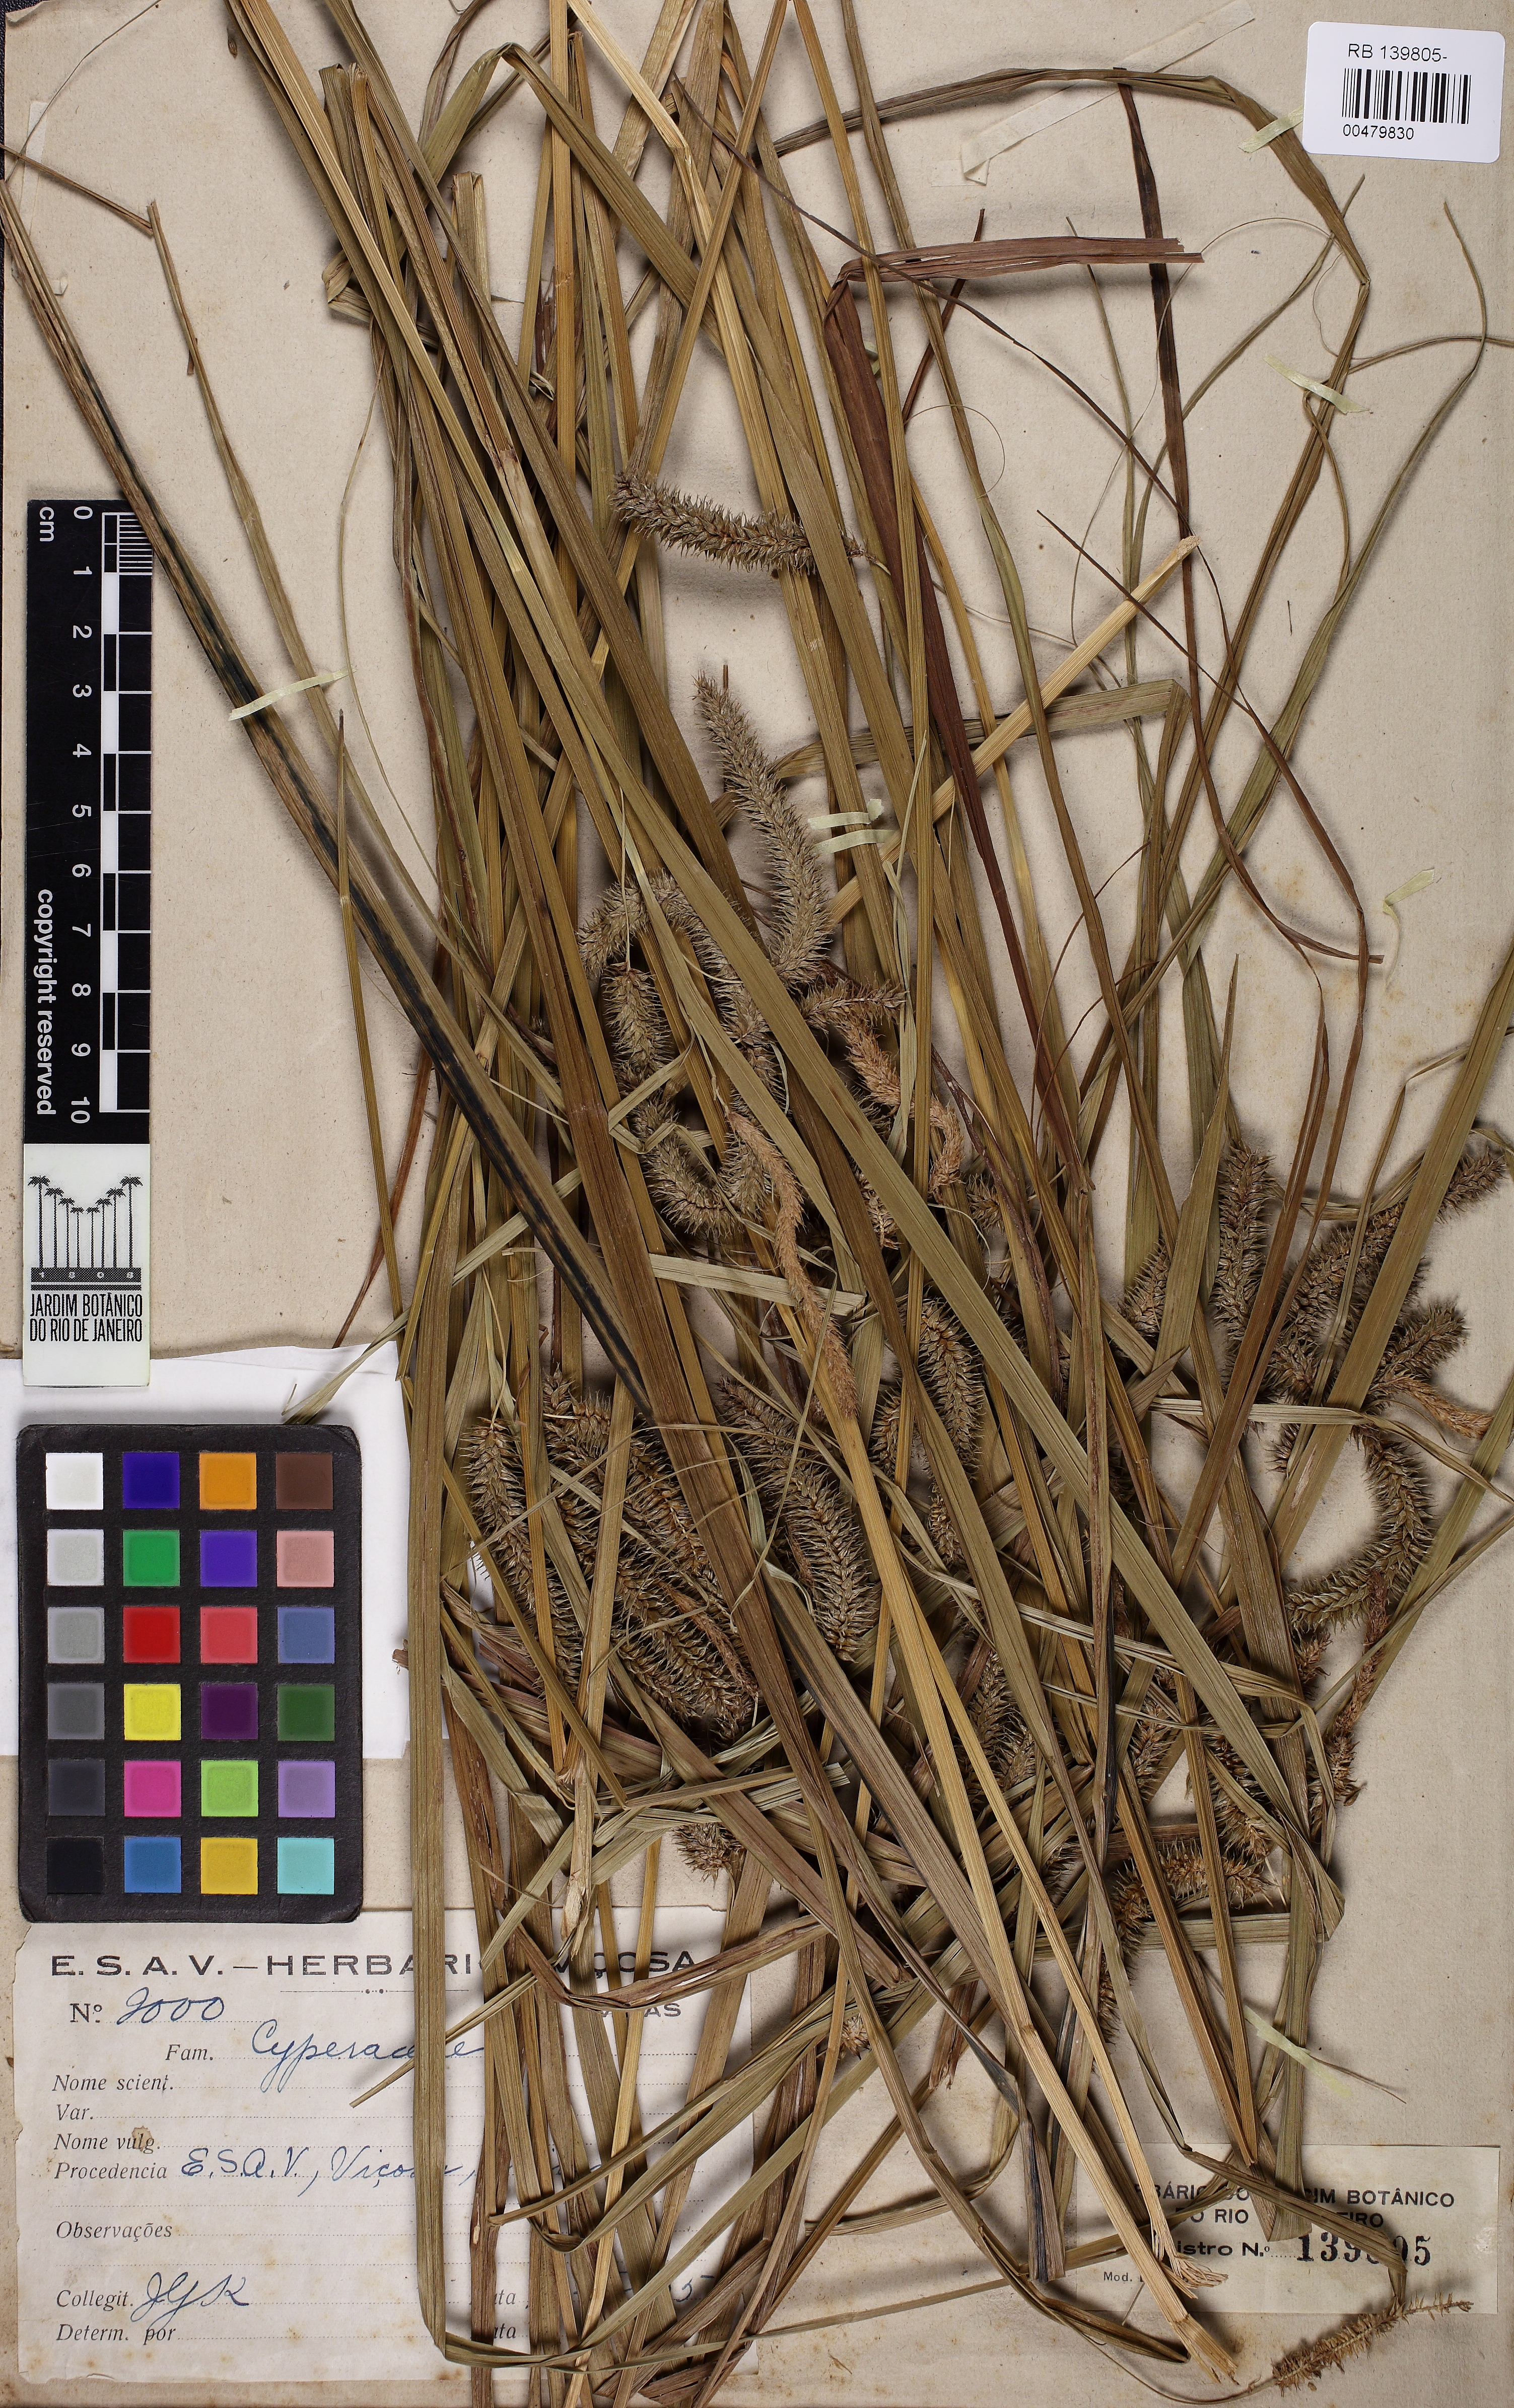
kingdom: Plantae
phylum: Tracheophyta
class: Liliopsida
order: Poales
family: Cyperaceae
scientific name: Cyperaceae
